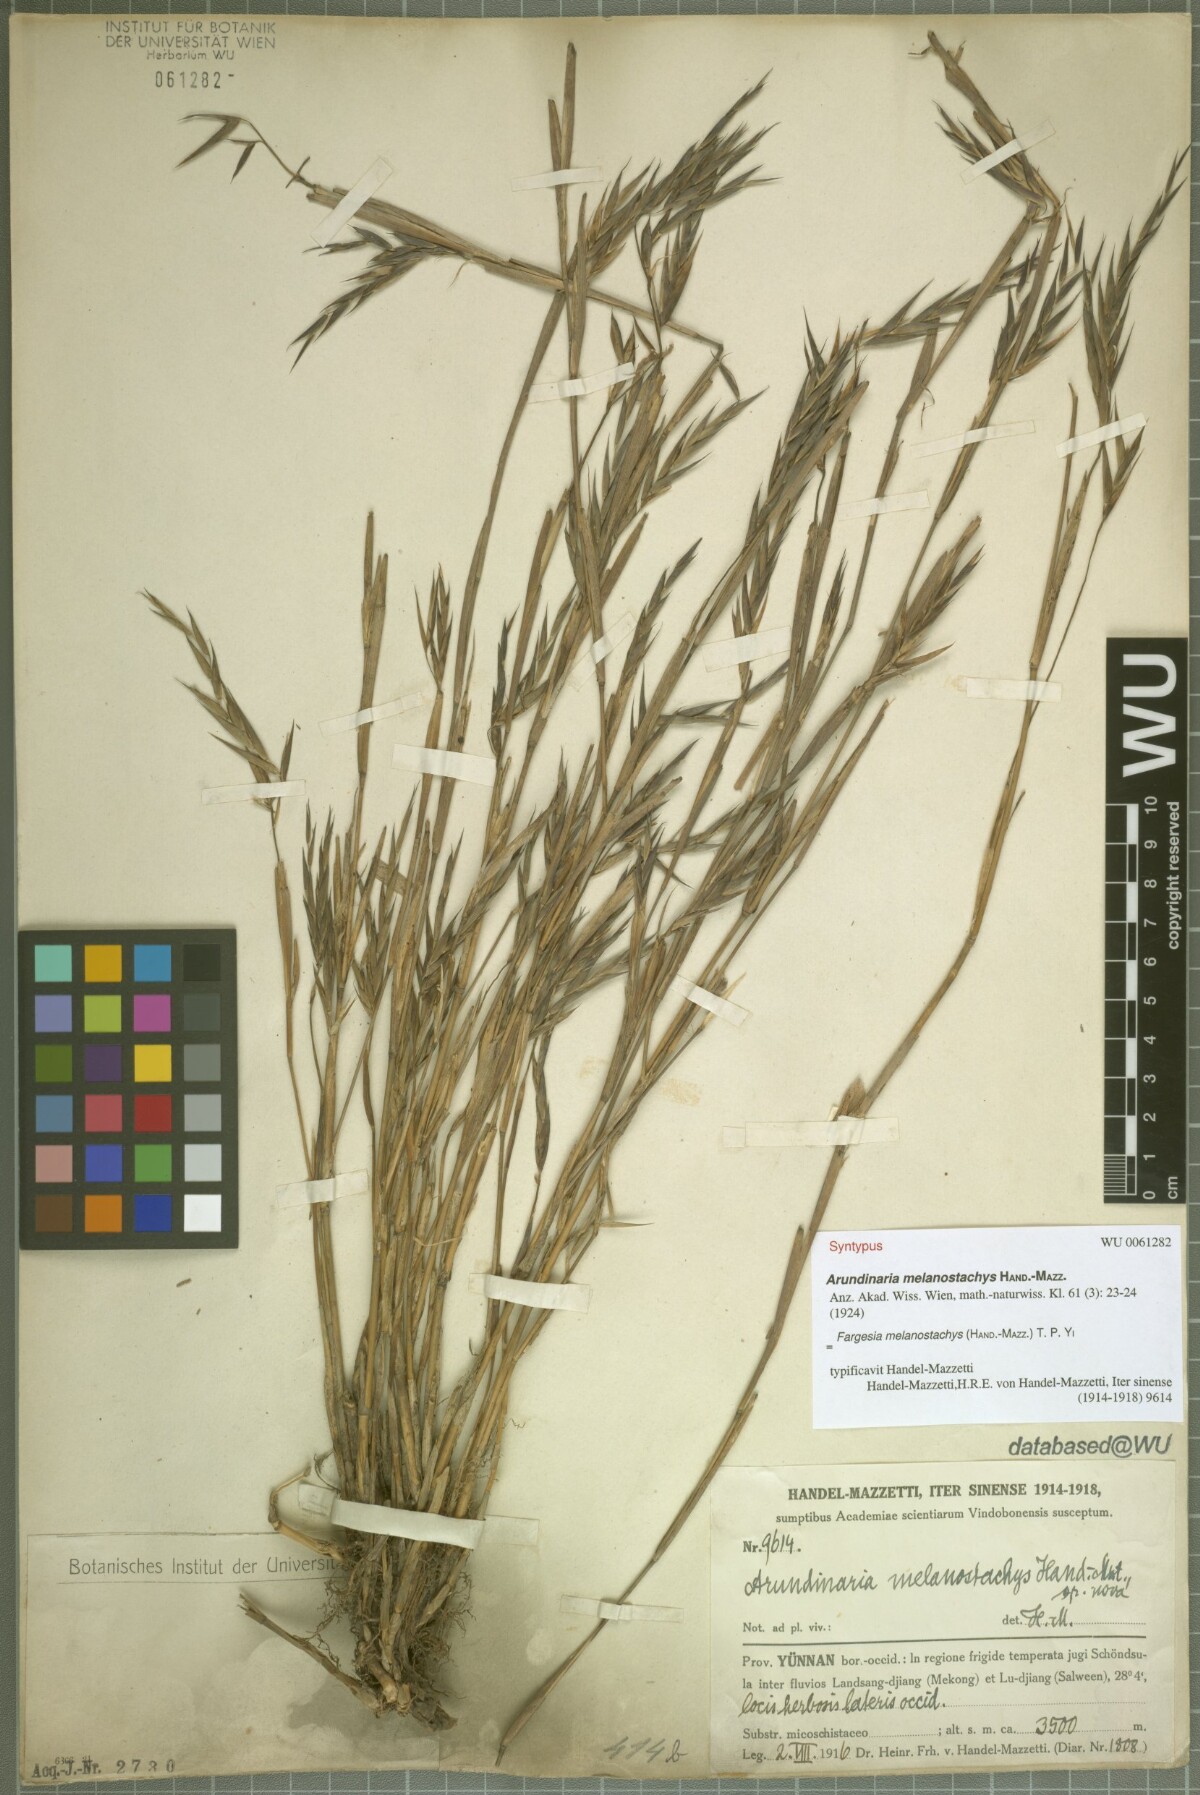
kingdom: Plantae
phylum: Tracheophyta
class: Liliopsida
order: Poales
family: Poaceae
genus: Fargesia
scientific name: Fargesia melanostachys
